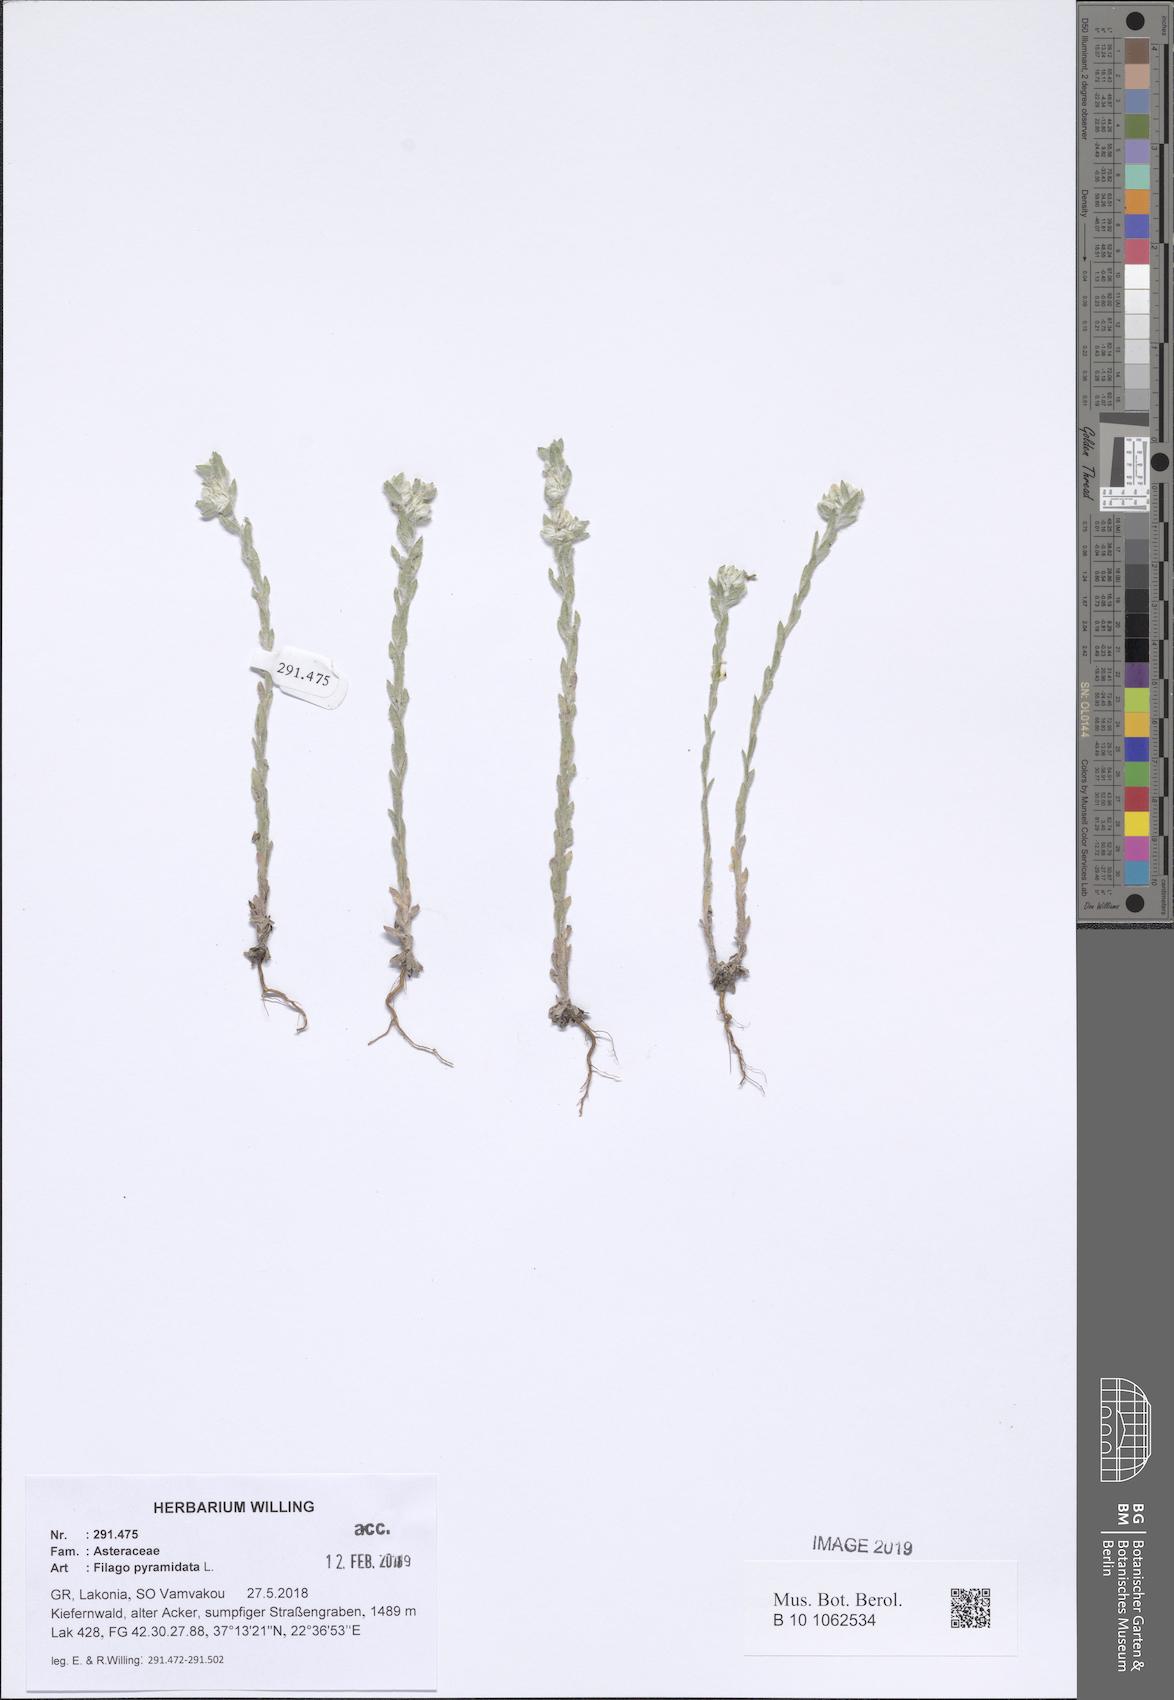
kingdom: Plantae
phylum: Tracheophyta
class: Magnoliopsida
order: Asterales
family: Asteraceae
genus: Filago
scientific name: Filago pyramidata
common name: Broad-leaved cudweed
